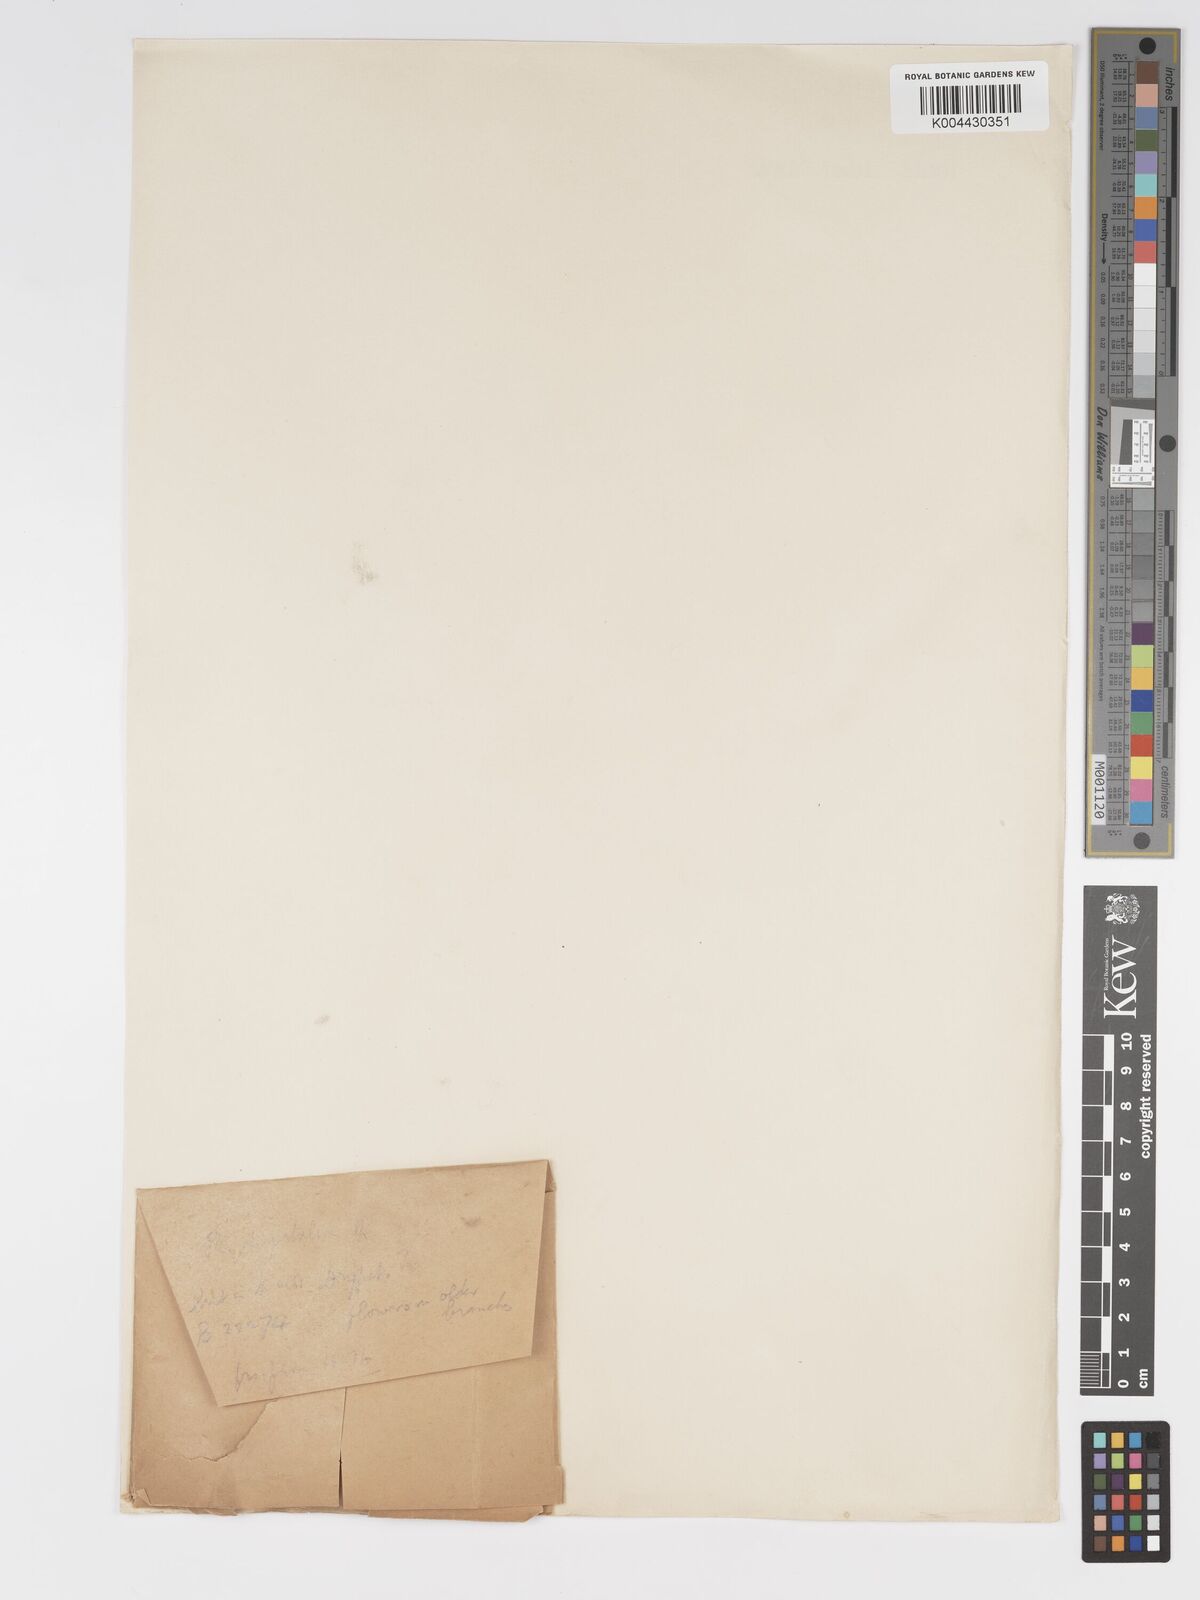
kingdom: Plantae
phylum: Tracheophyta
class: Magnoliopsida
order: Malpighiales
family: Putranjivaceae
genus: Drypetes
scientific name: Drypetes aylmeri
